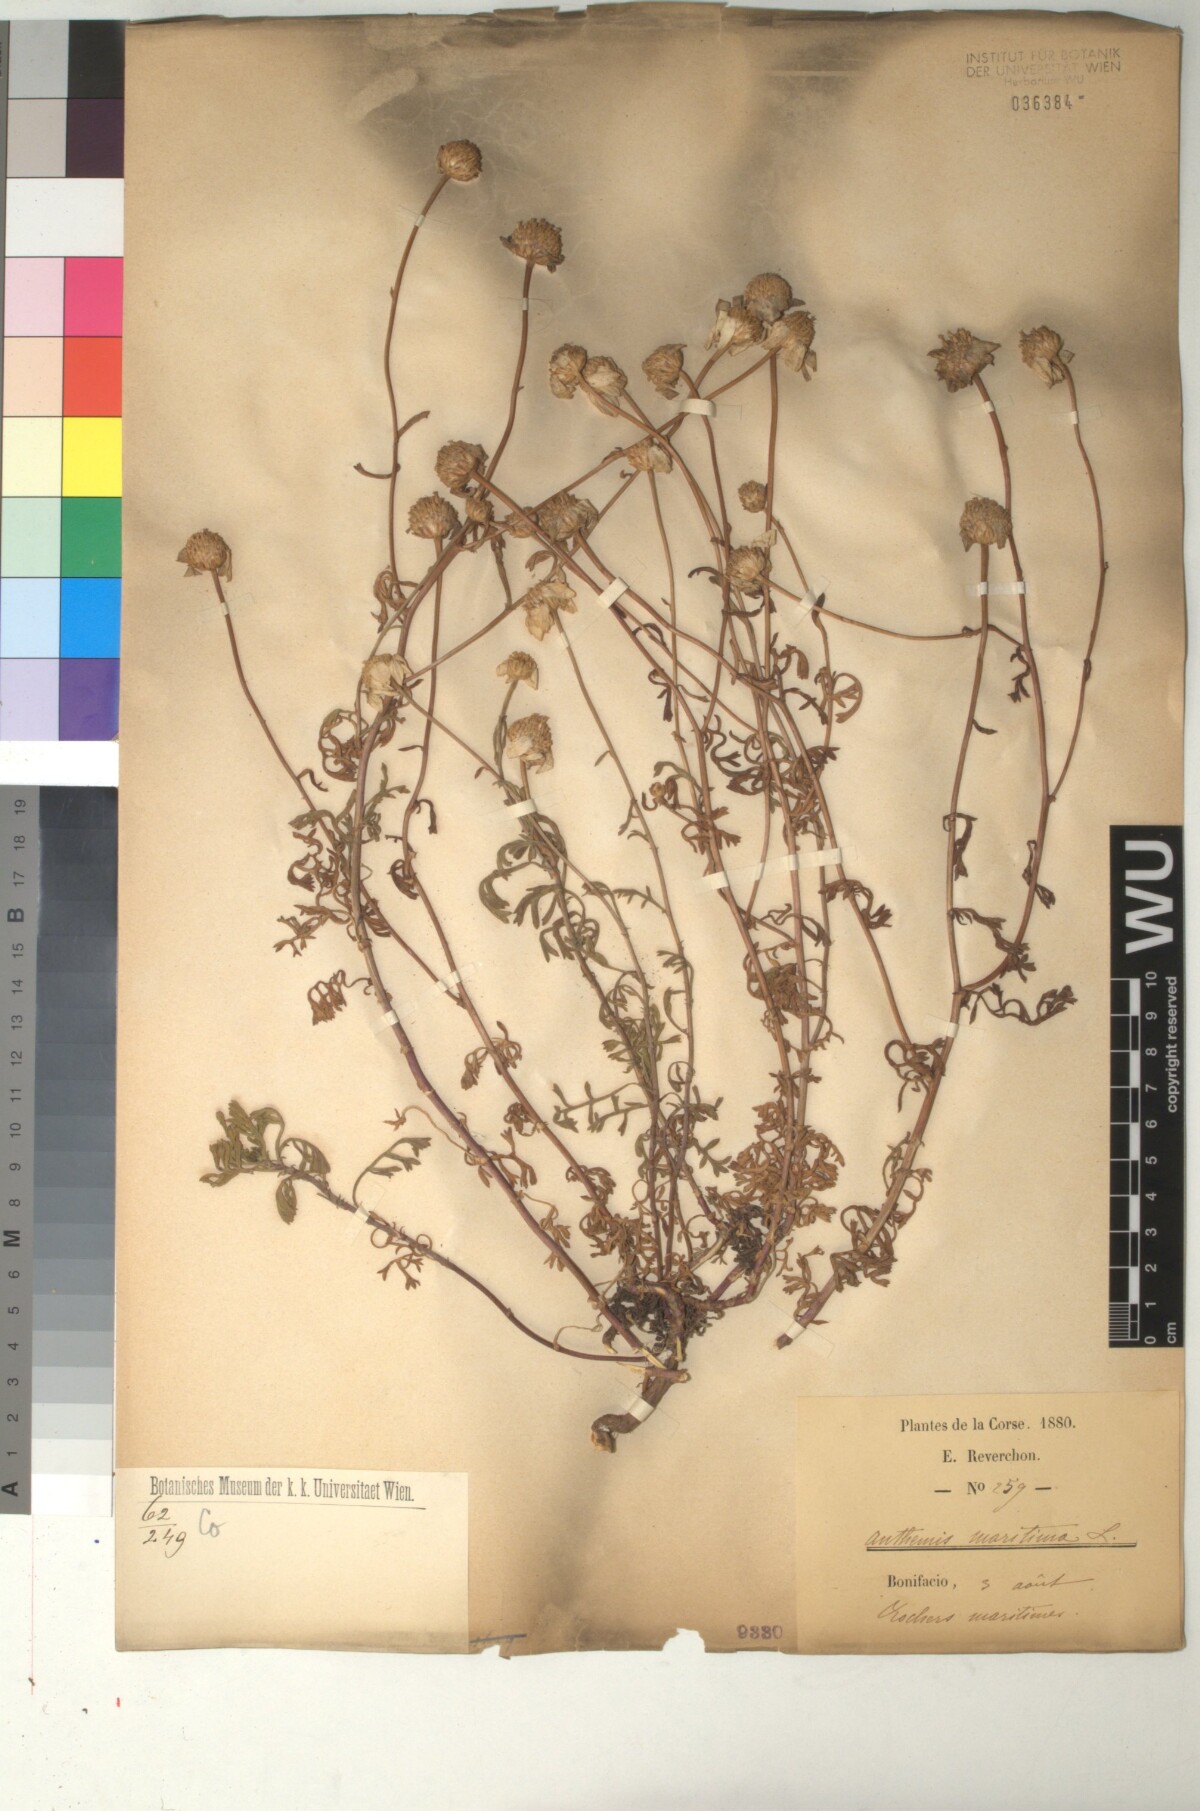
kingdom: Plantae
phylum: Tracheophyta
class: Magnoliopsida
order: Asterales
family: Asteraceae
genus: Anthemis
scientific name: Anthemis maritima
